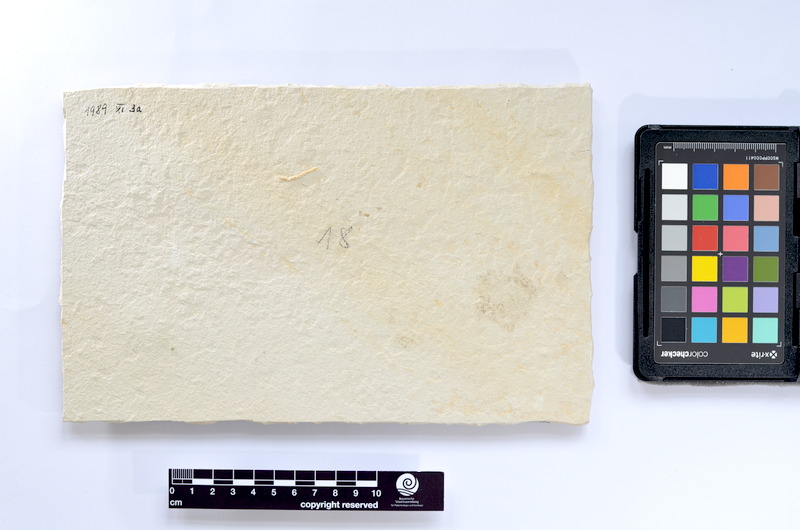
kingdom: Animalia
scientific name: Animalia
